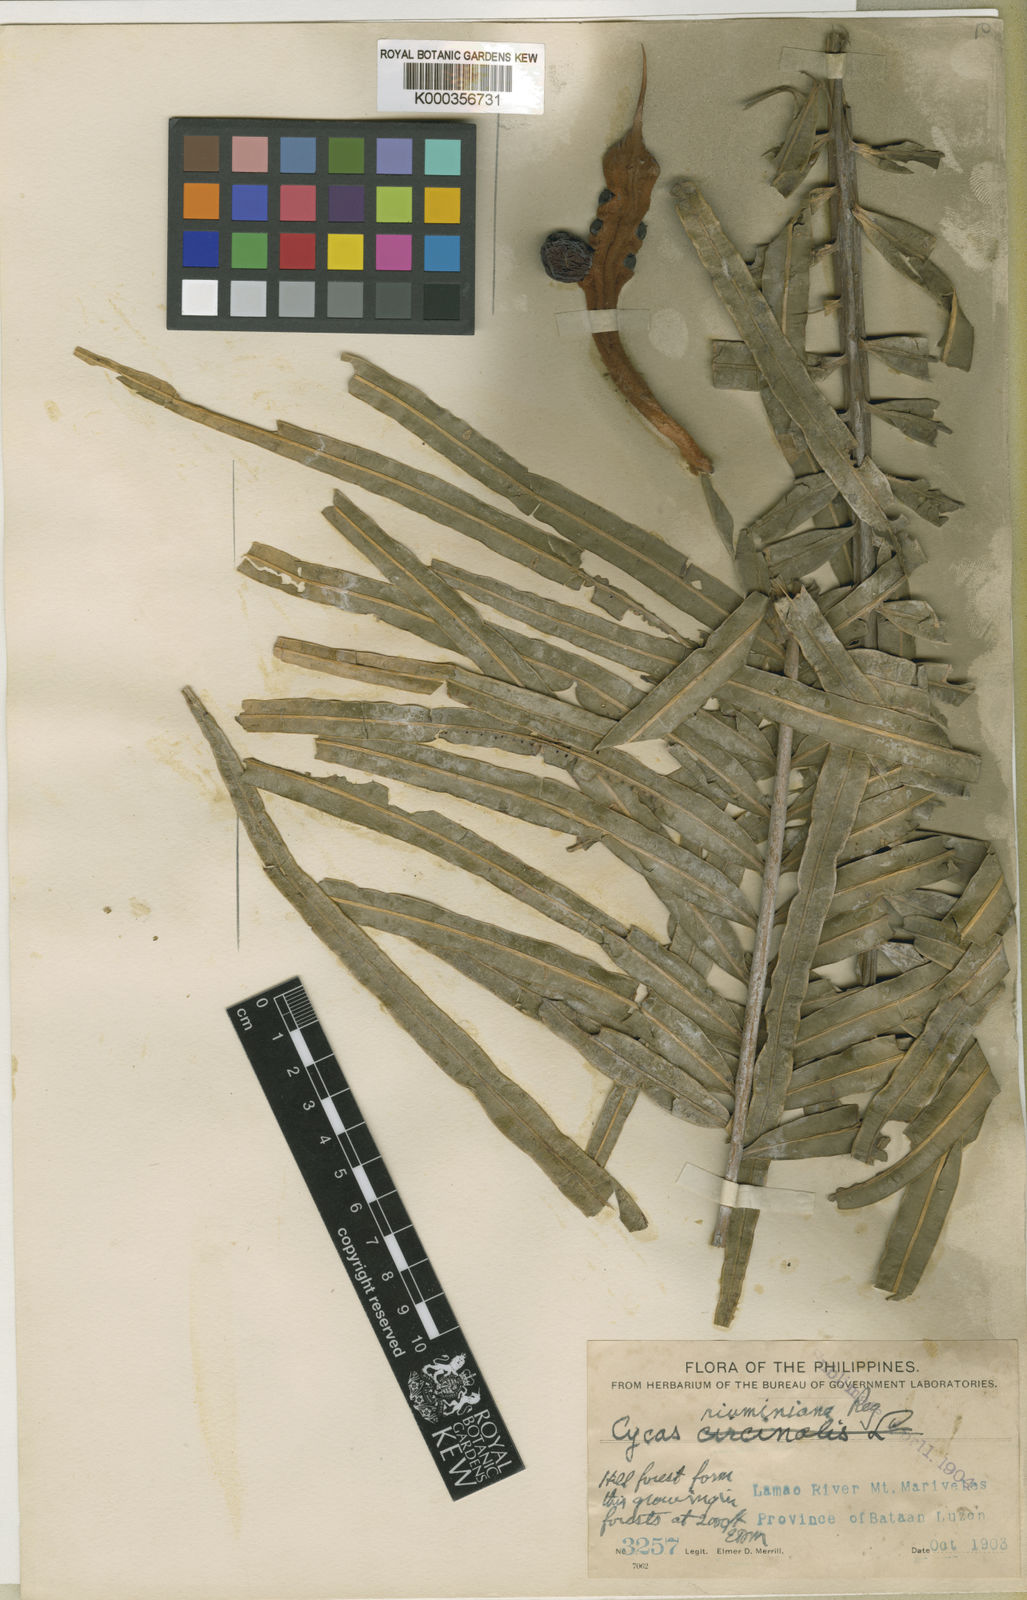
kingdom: Plantae
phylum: Tracheophyta
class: Cycadopsida
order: Cycadales
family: Cycadaceae
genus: Cycas
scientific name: Cycas riuminiana
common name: Arayat pitogo
